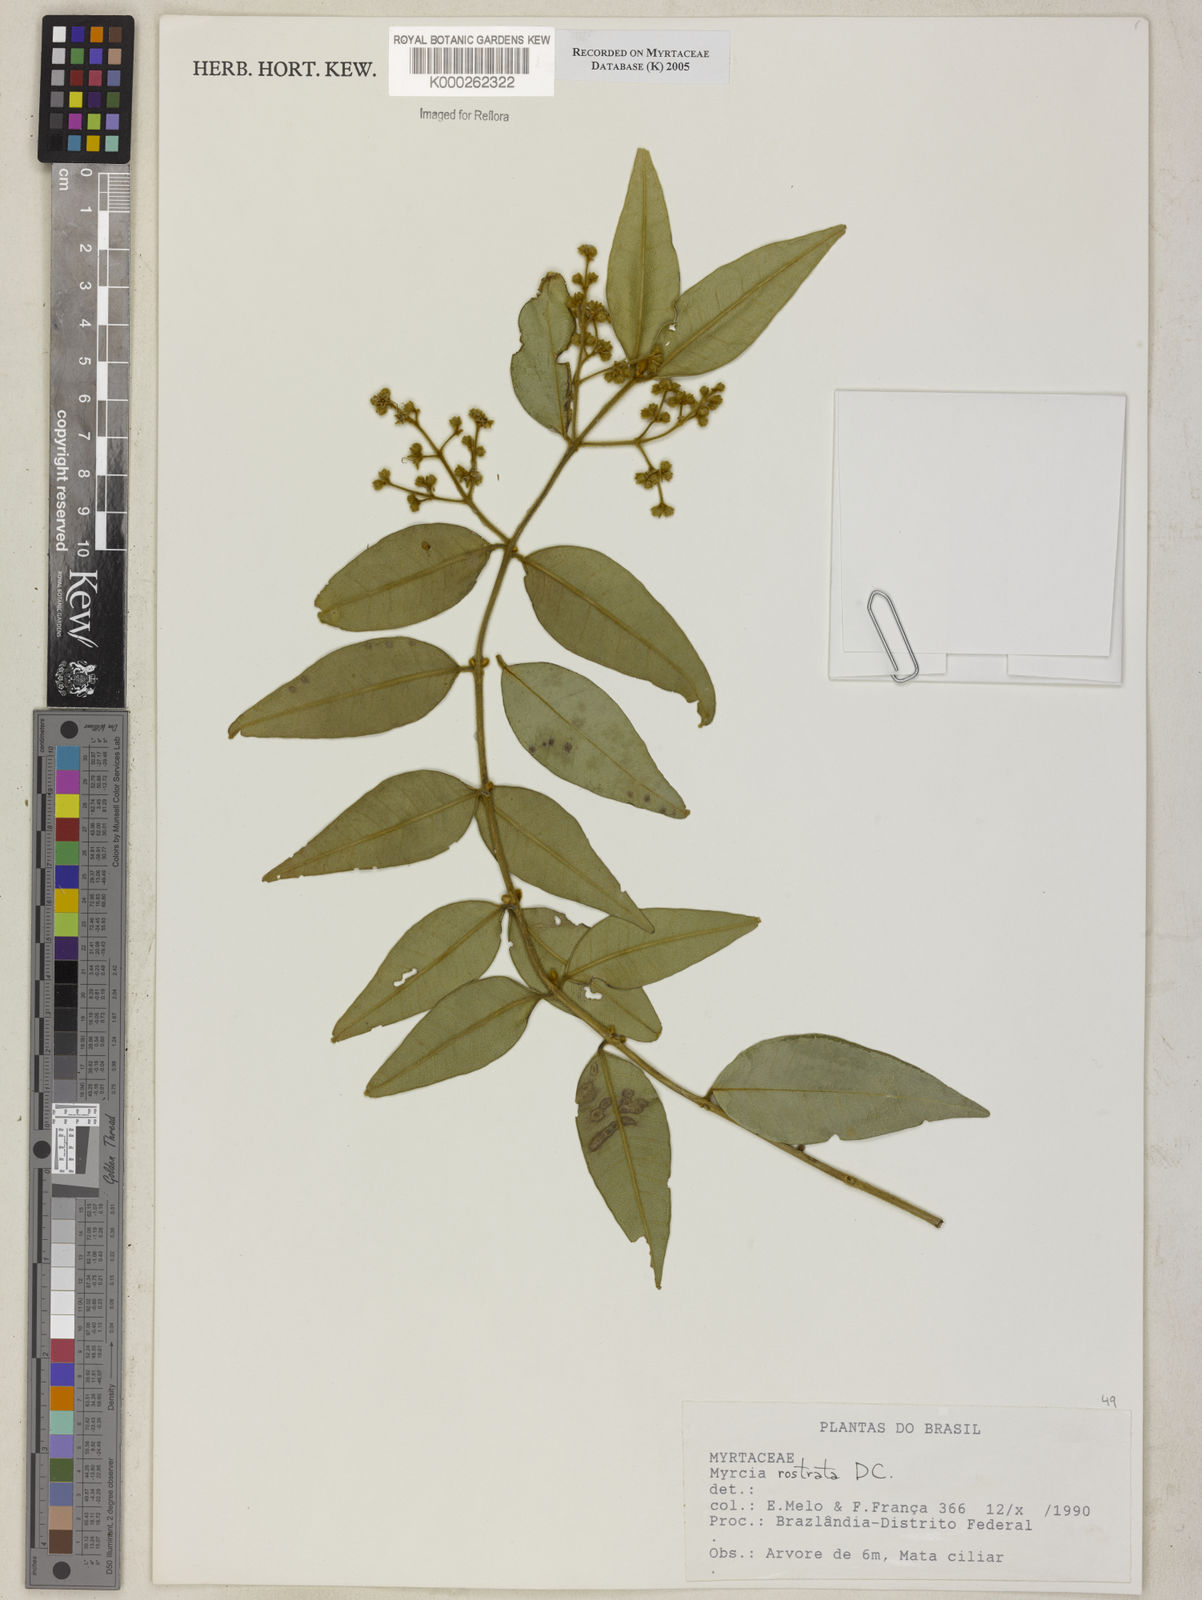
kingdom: Plantae
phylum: Tracheophyta
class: Magnoliopsida
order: Myrtales
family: Myrtaceae
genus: Myrcia
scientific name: Myrcia splendens
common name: Surinam cherry
